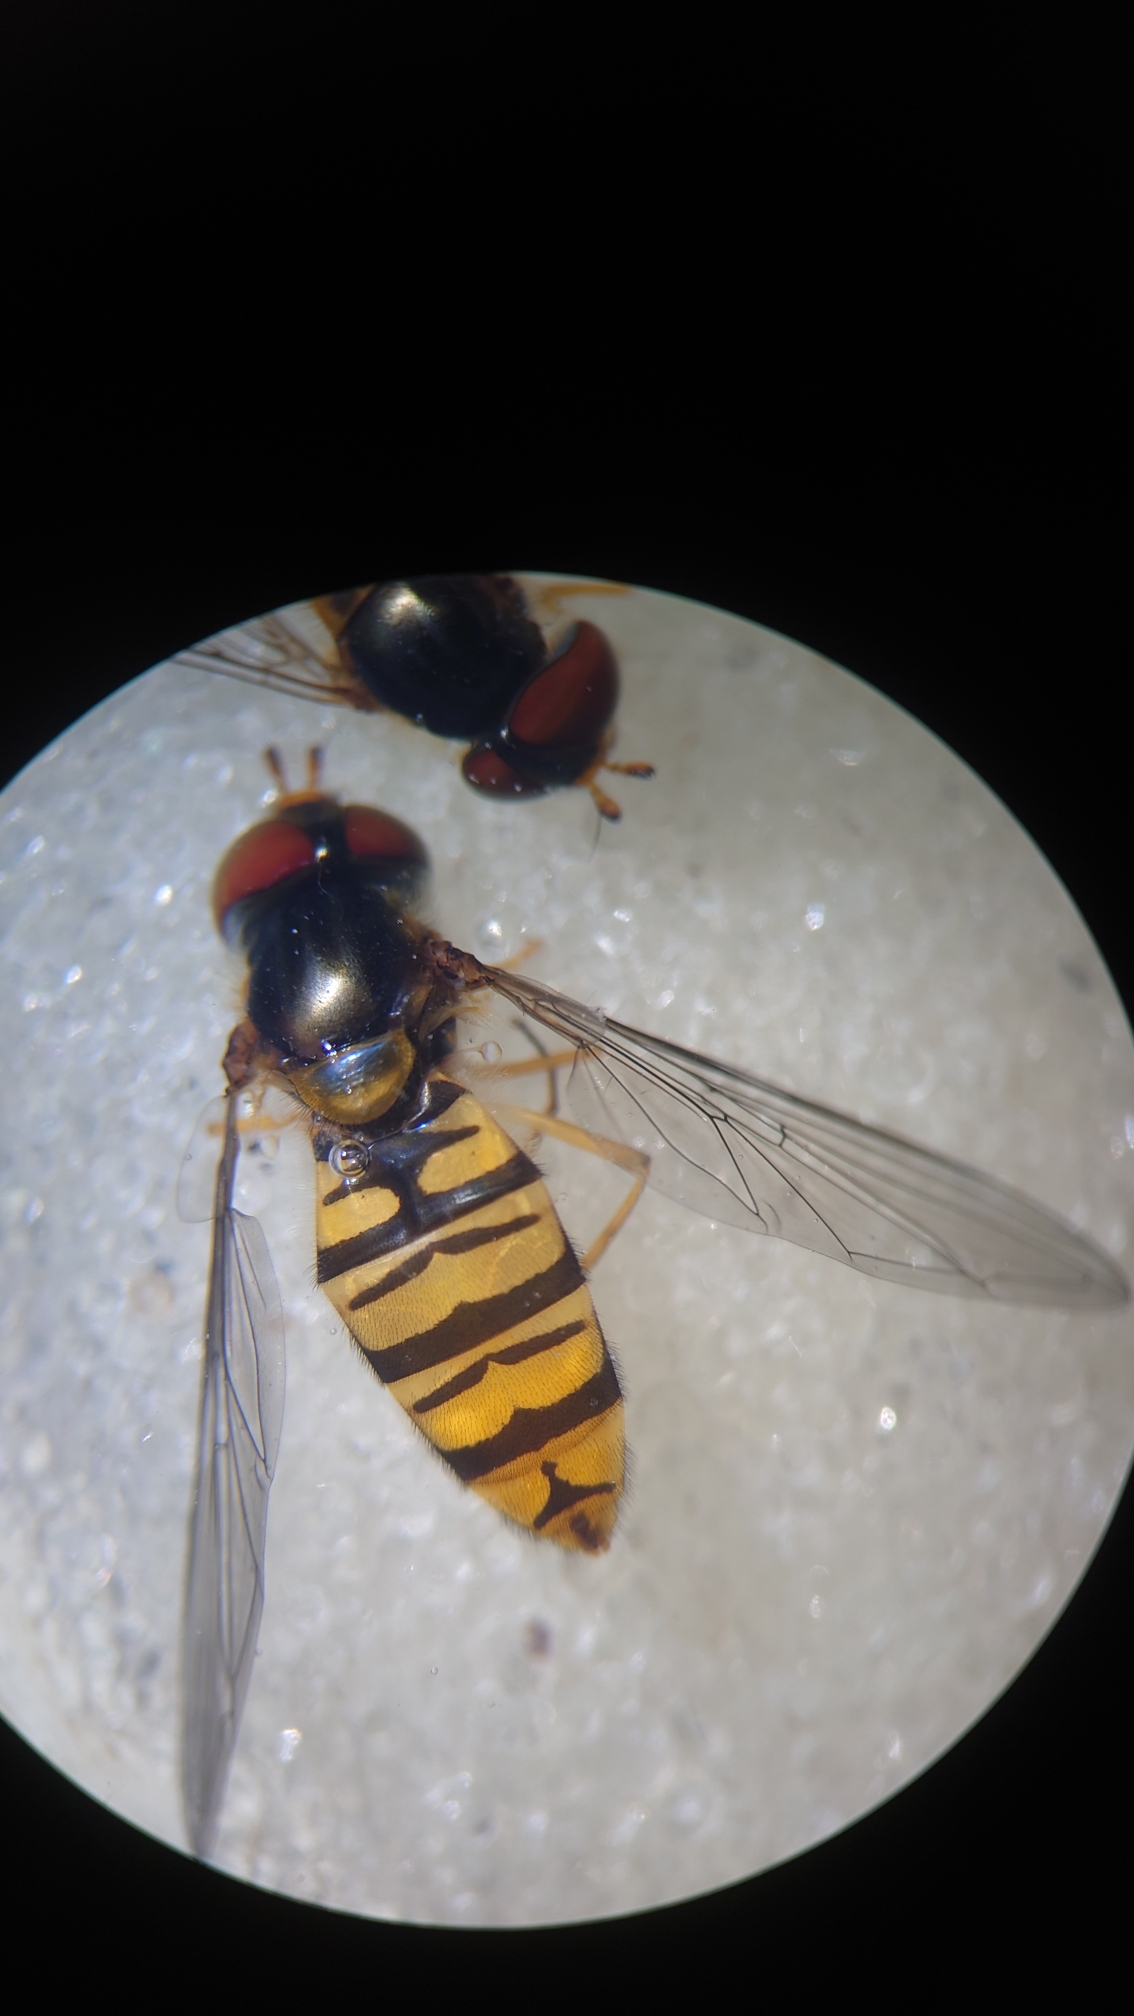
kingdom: Animalia
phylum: Arthropoda
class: Insecta
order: Diptera
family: Syrphidae
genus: Episyrphus
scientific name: Episyrphus balteatus
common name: Dobbeltbåndet svirreflue
